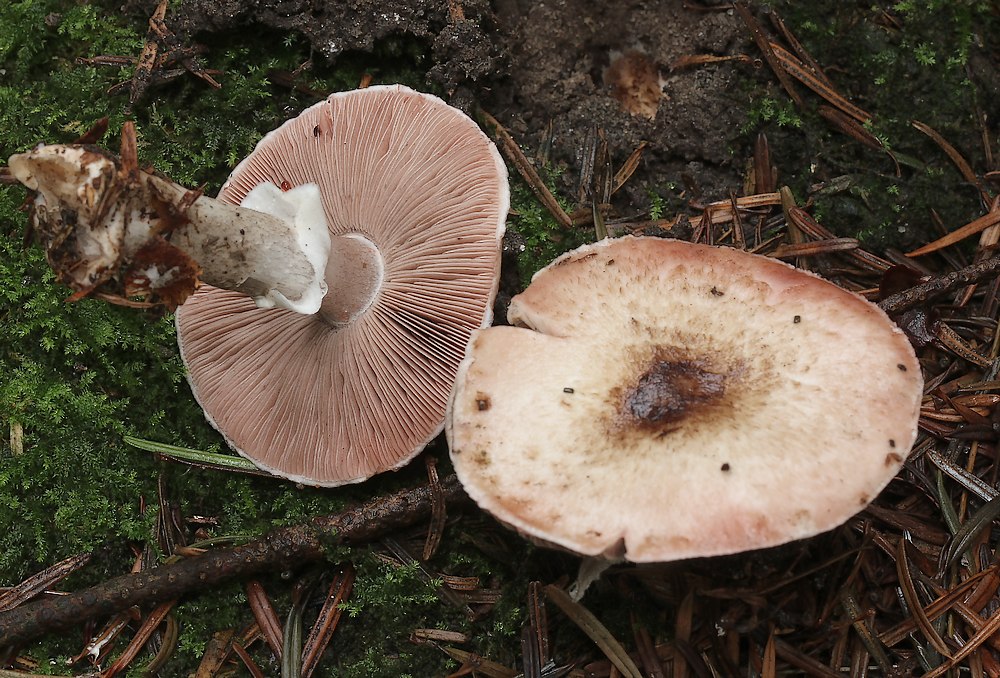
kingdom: Fungi
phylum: Basidiomycota
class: Agaricomycetes
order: Agaricales
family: Agaricaceae
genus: Agaricus
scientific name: Agaricus
